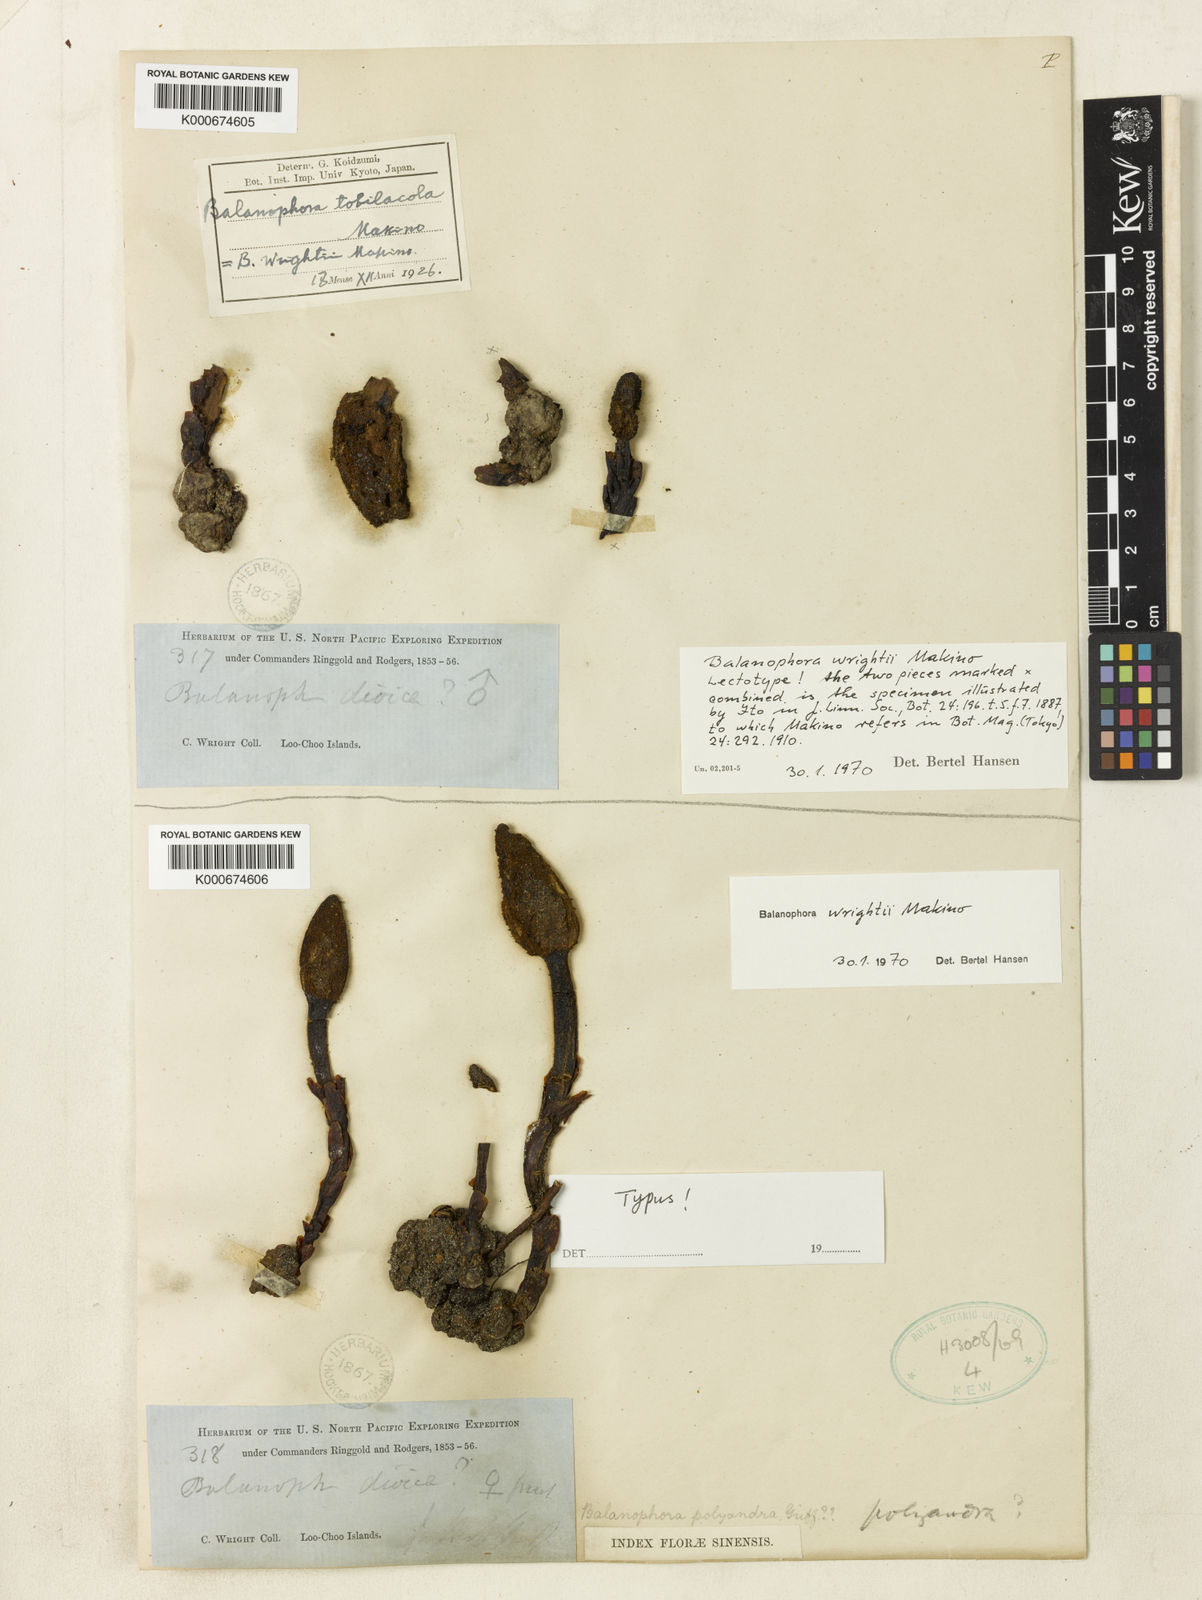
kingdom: Plantae
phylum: Tracheophyta
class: Magnoliopsida
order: Santalales
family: Balanophoraceae
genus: Balanophora
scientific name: Balanophora tobiracola
